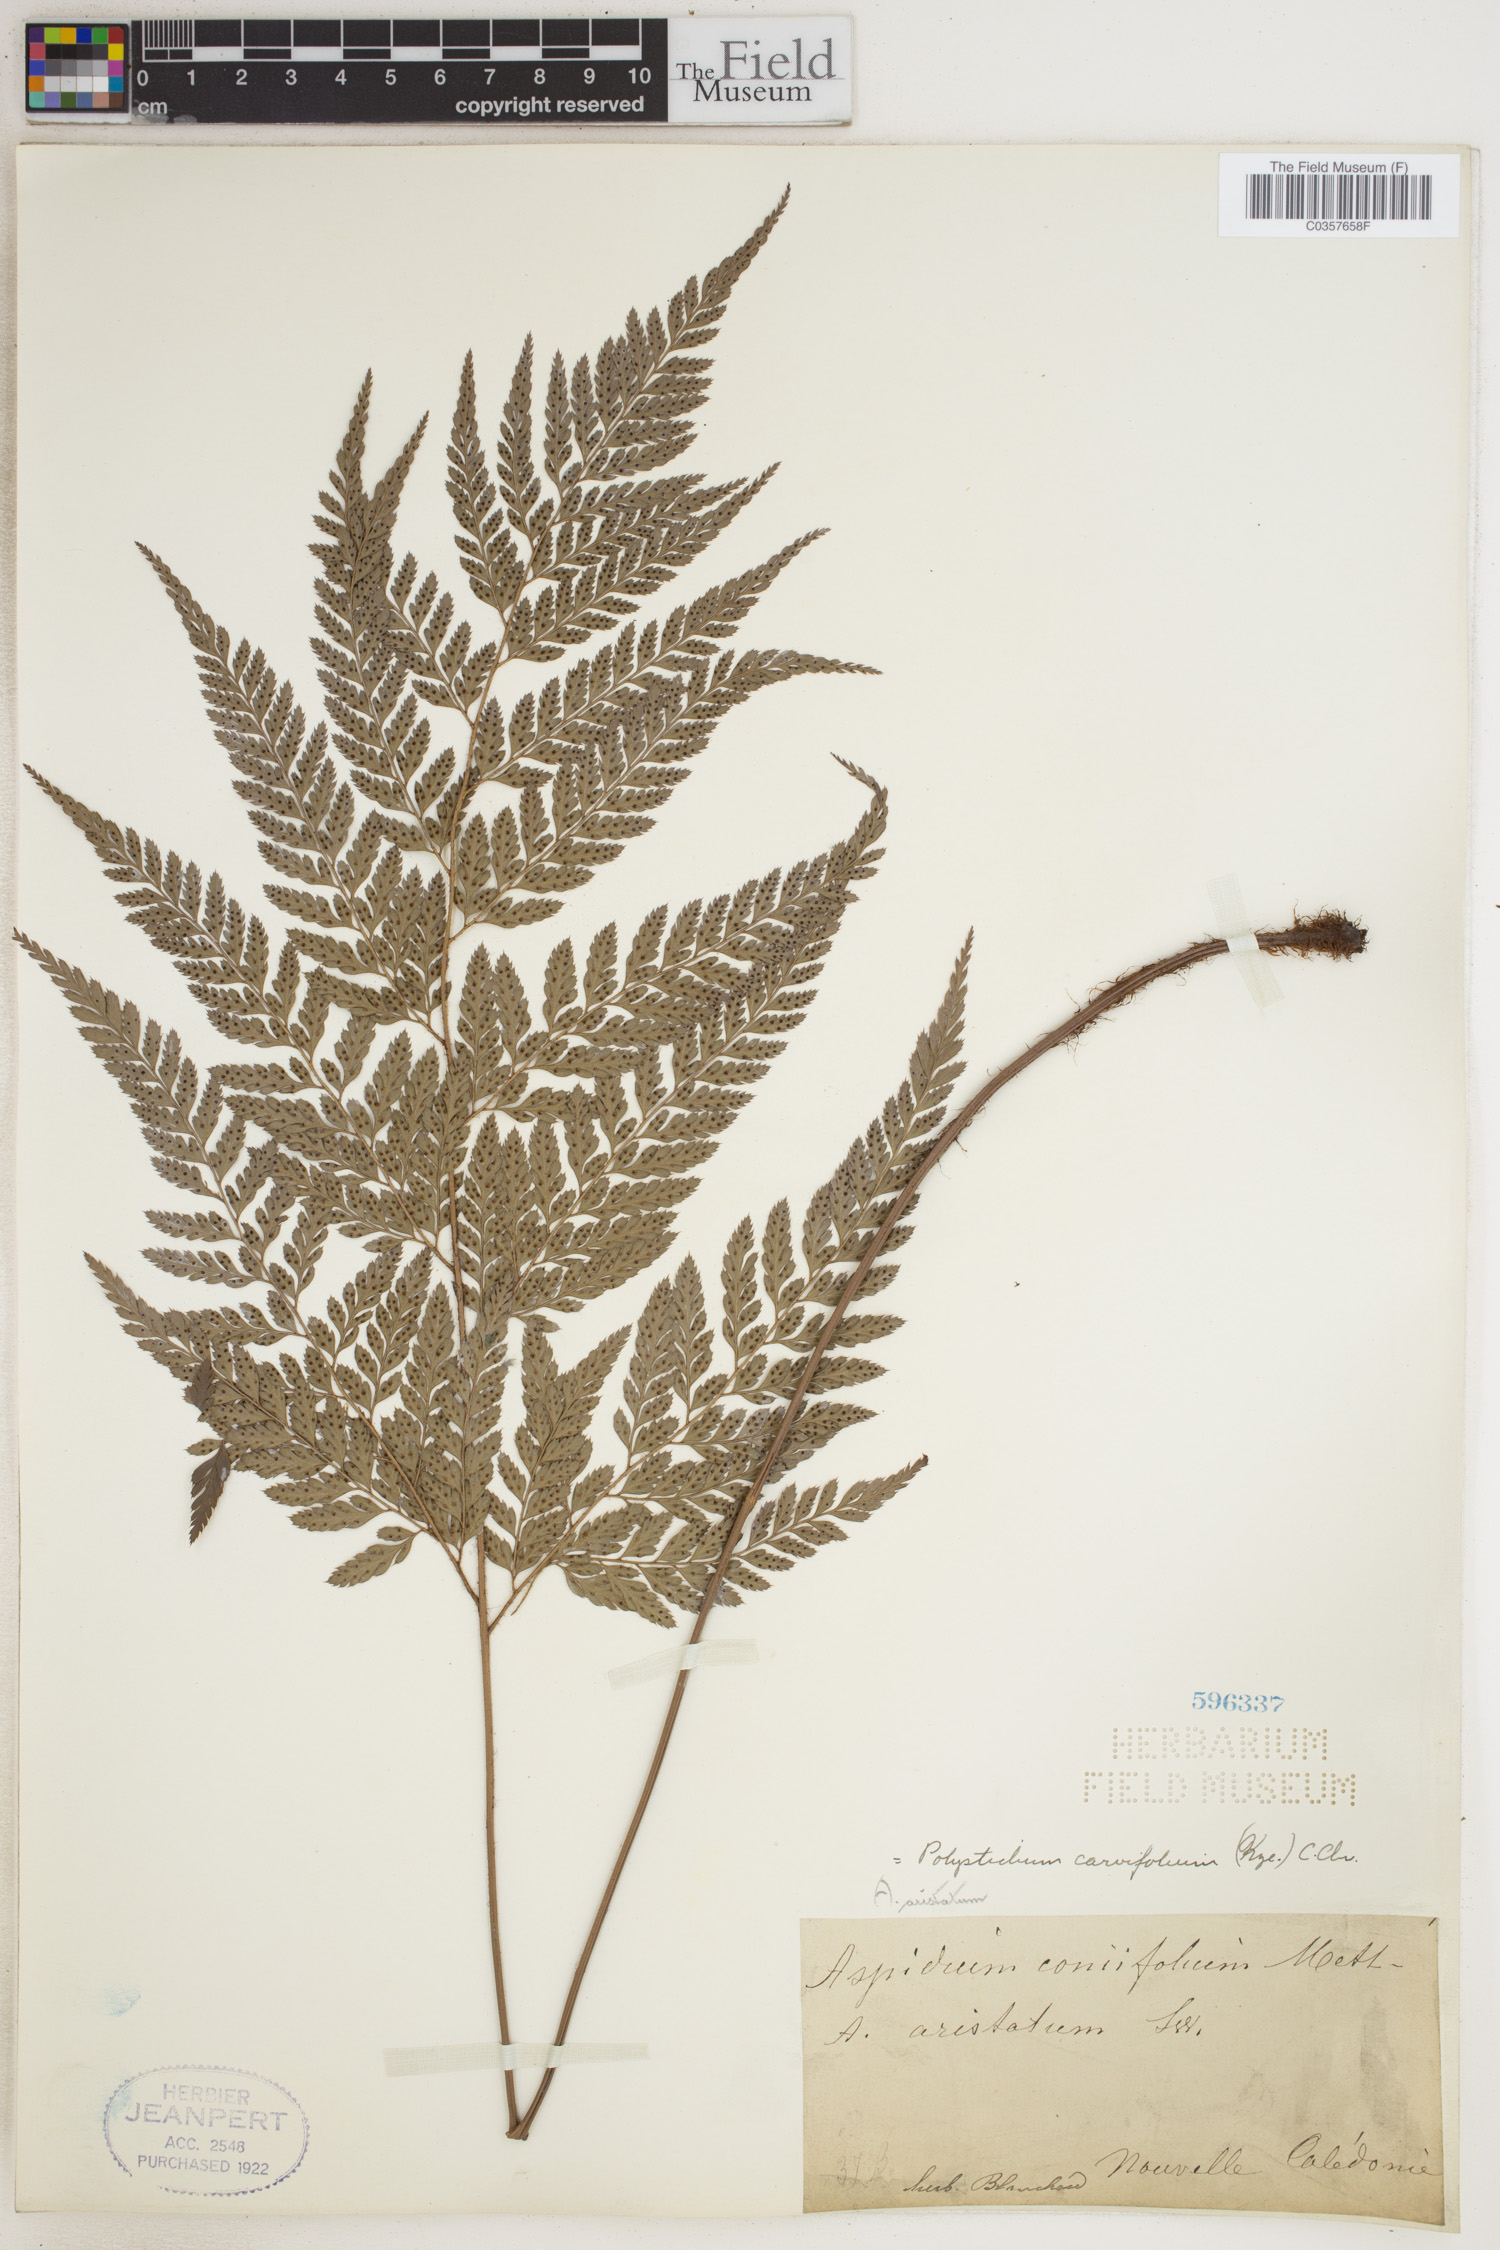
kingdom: Plantae
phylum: Tracheophyta
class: Polypodiopsida
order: Polypodiales
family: Dryopteridaceae
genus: Arachniodes
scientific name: Arachniodes carvifolia
